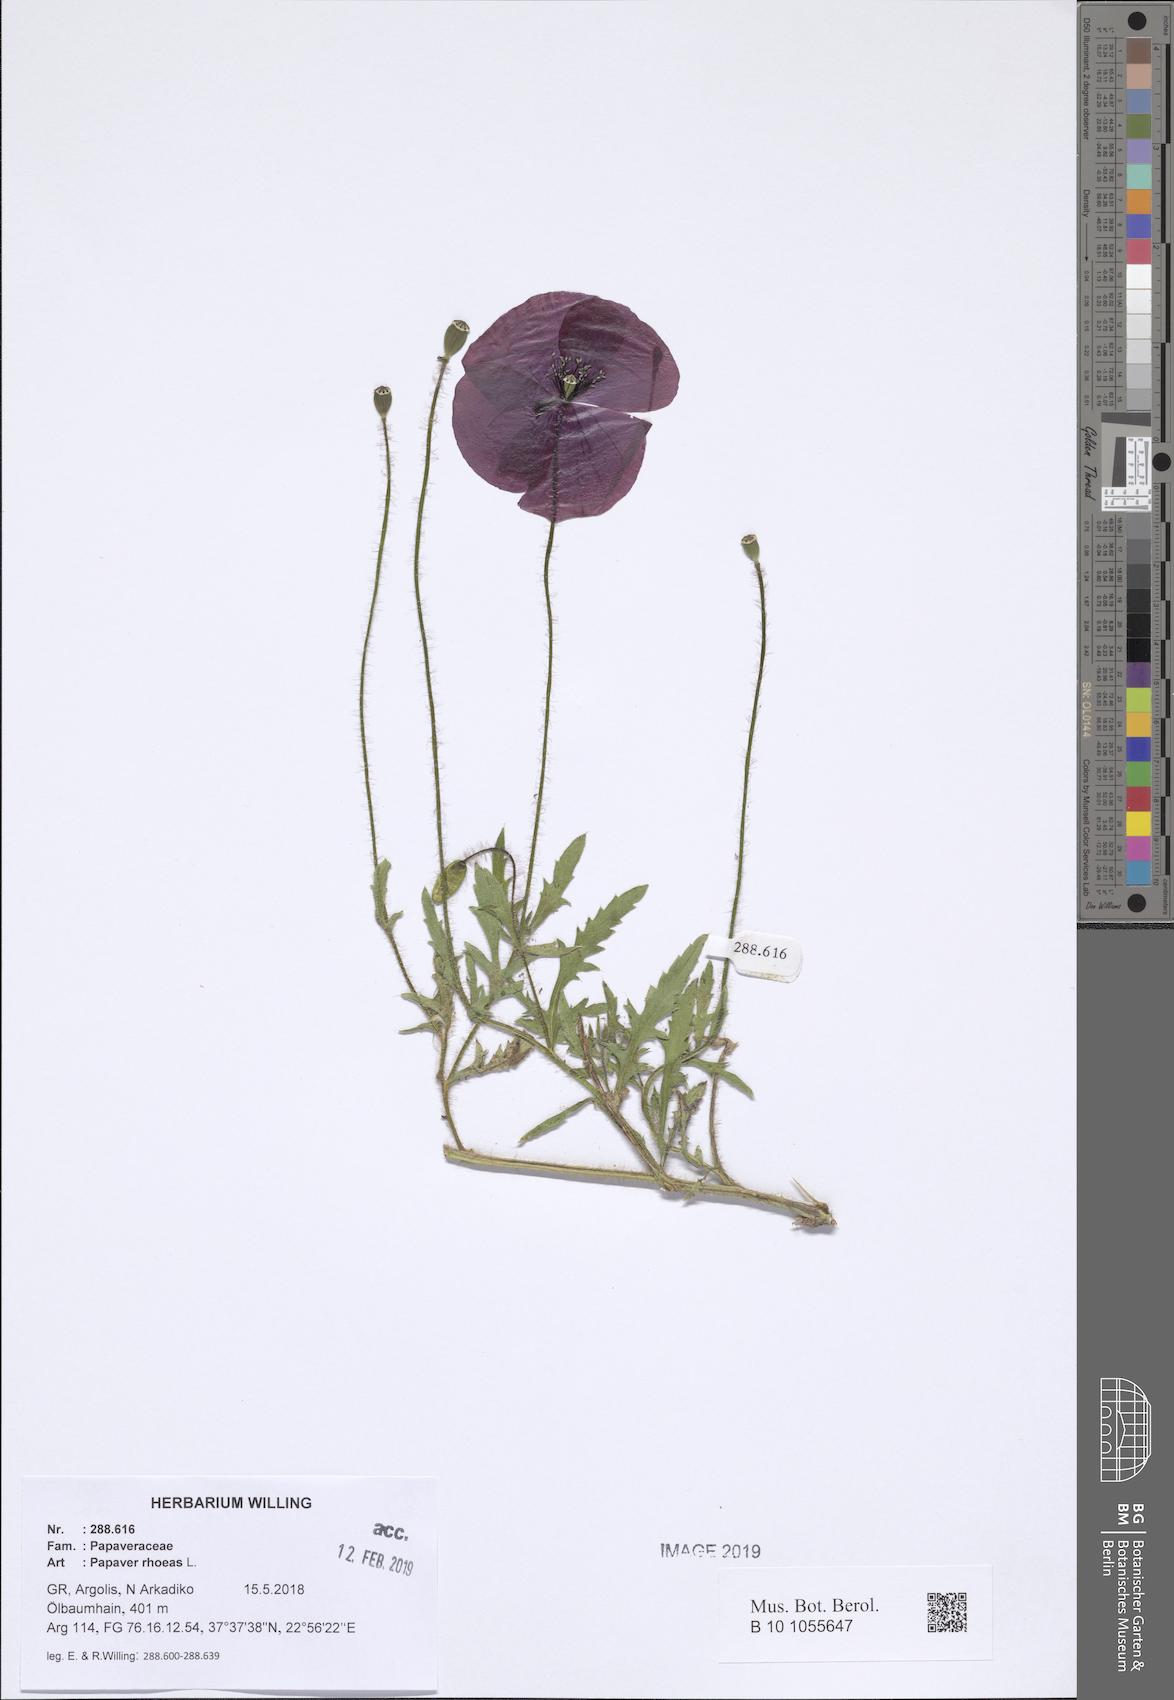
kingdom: Plantae
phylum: Tracheophyta
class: Magnoliopsida
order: Ranunculales
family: Papaveraceae
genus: Papaver
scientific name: Papaver rhoeas
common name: Corn poppy
